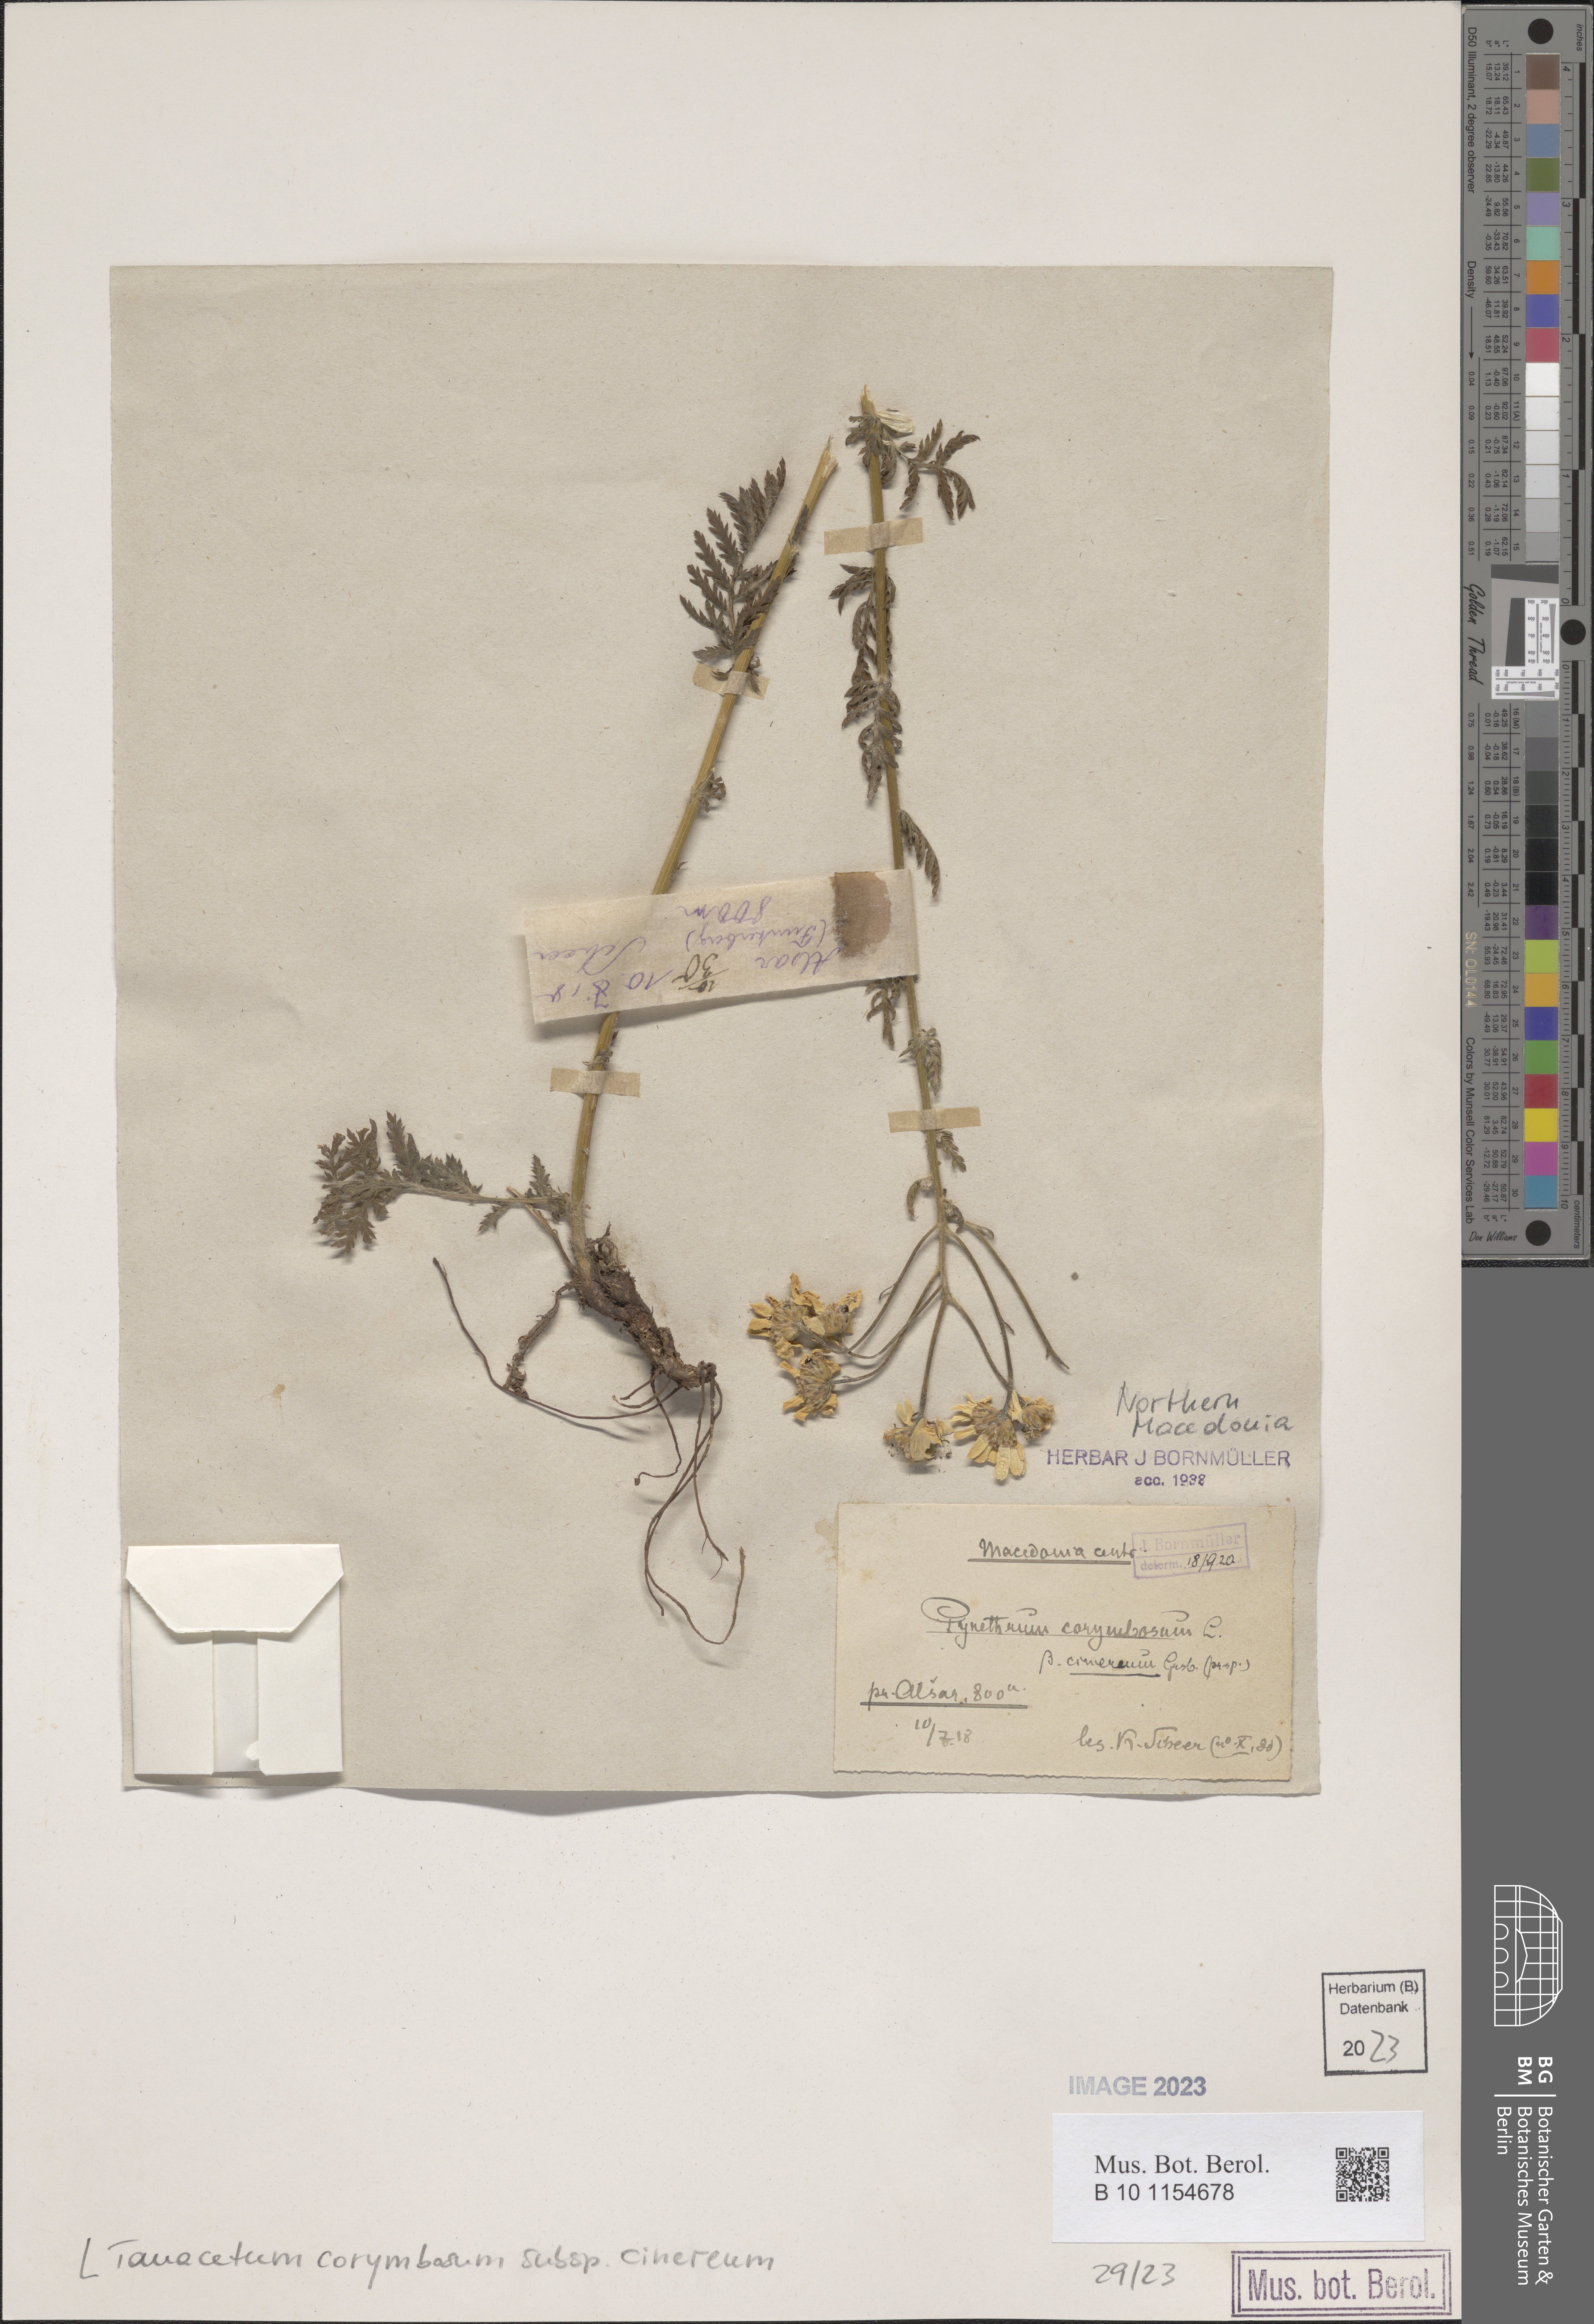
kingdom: Plantae
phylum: Tracheophyta
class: Magnoliopsida
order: Asterales
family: Asteraceae
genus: Tanacetum
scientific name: Tanacetum corymbosum
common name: Scentless feverfew
